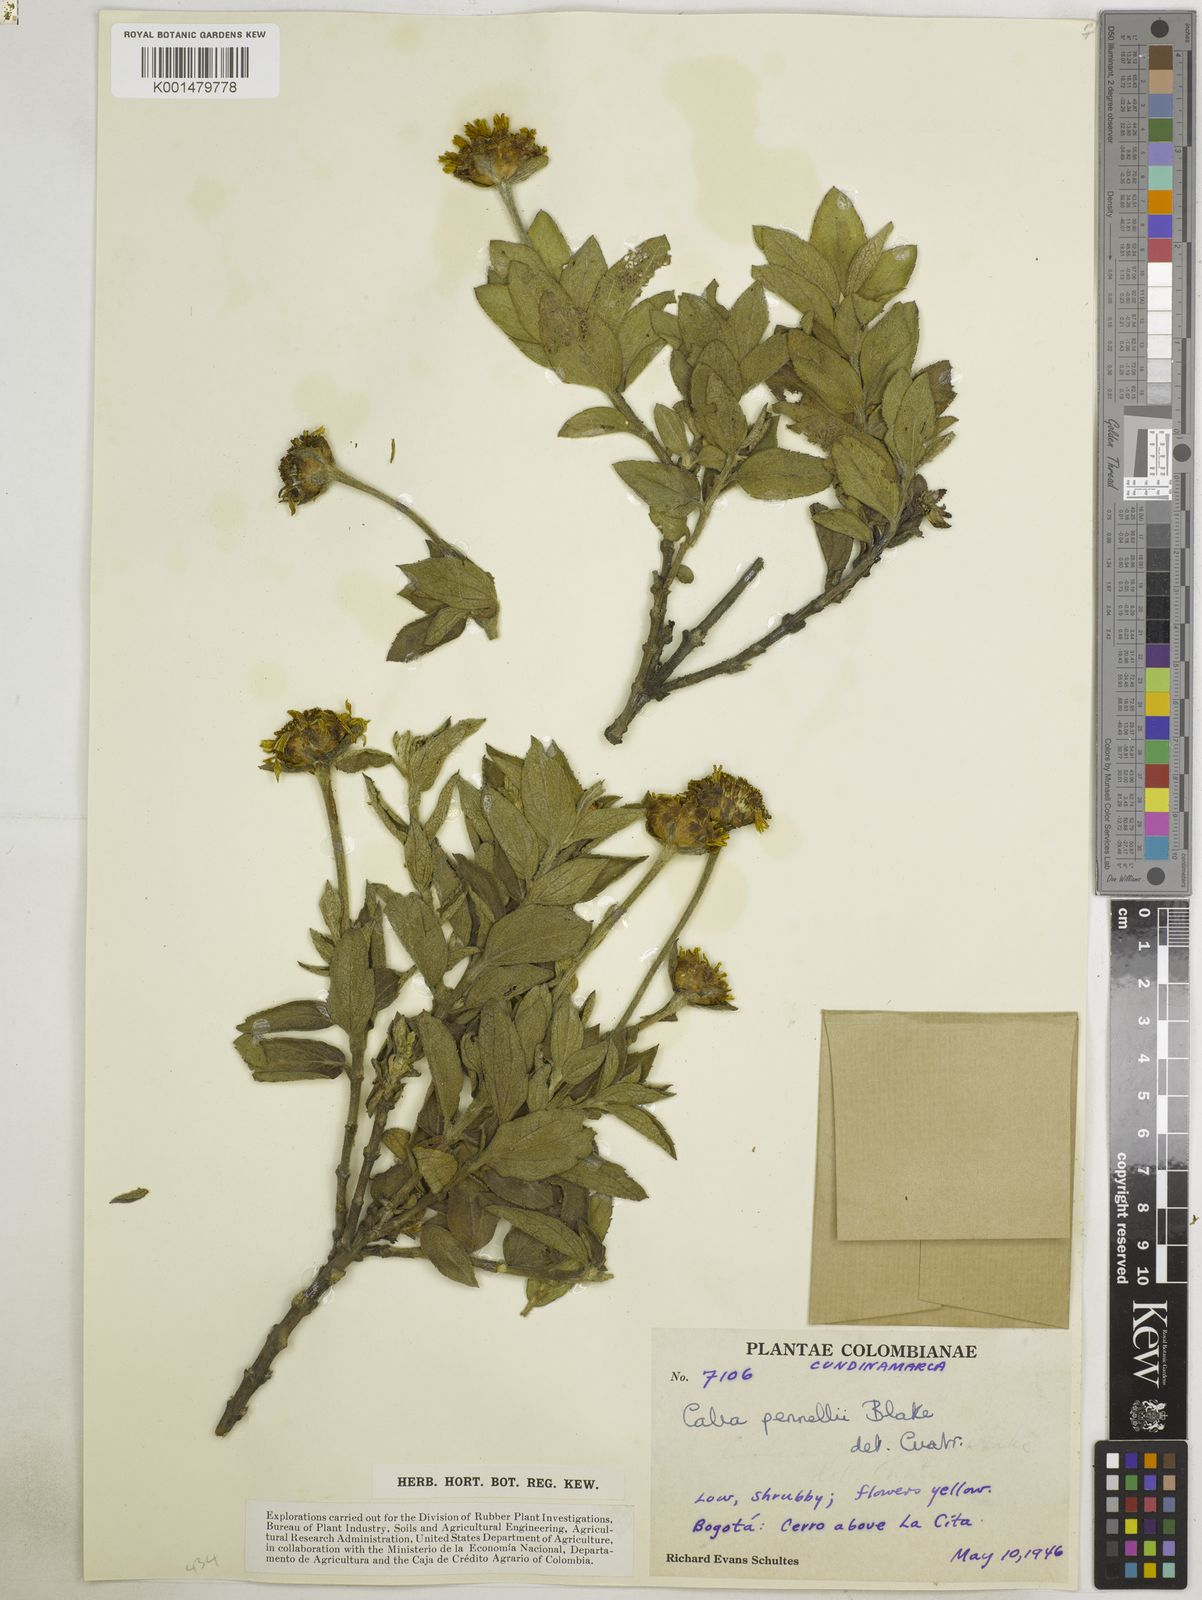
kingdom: Plantae
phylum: Tracheophyta
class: Magnoliopsida
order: Asterales
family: Asteraceae
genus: Calea
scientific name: Calea peruviana
